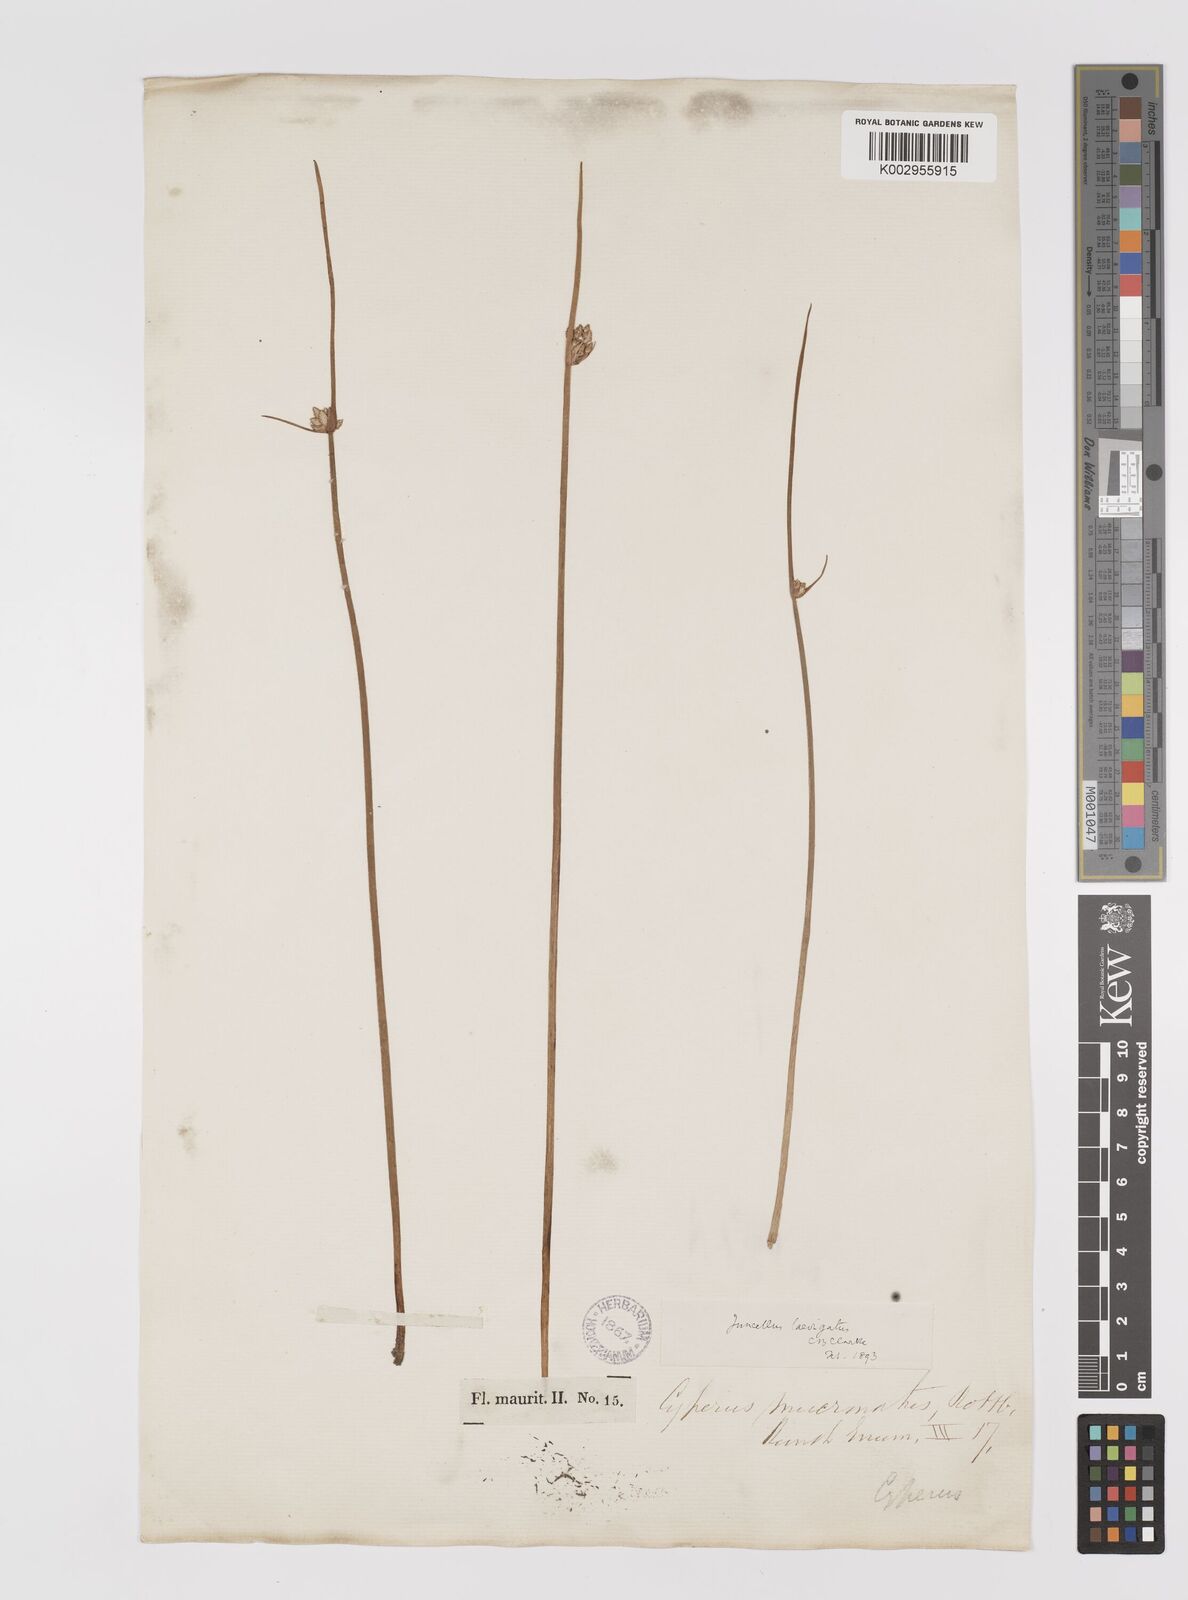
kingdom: Plantae
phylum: Tracheophyta
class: Liliopsida
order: Poales
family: Cyperaceae
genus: Cyperus
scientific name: Cyperus laevigatus
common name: Smooth flat sedge
